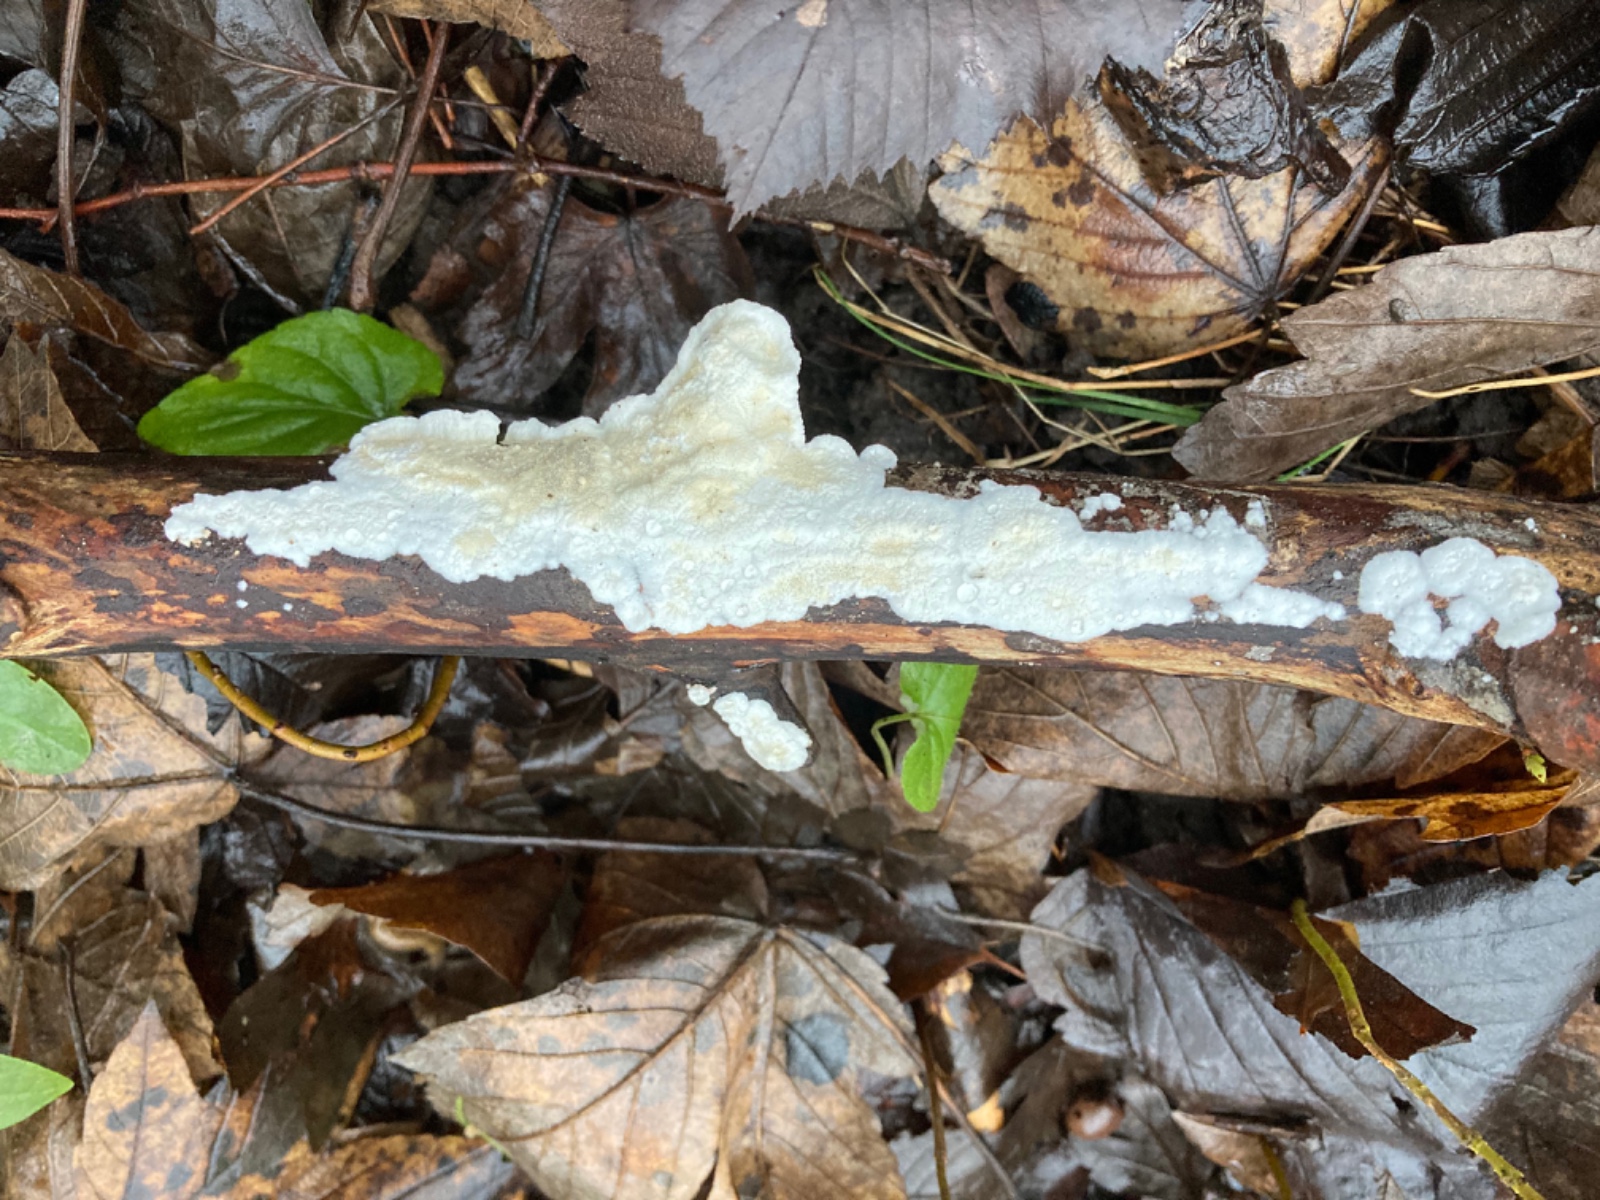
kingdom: Fungi
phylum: Basidiomycota
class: Agaricomycetes
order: Polyporales
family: Irpicaceae
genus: Byssomerulius
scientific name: Byssomerulius corium
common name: læder-åresvamp
